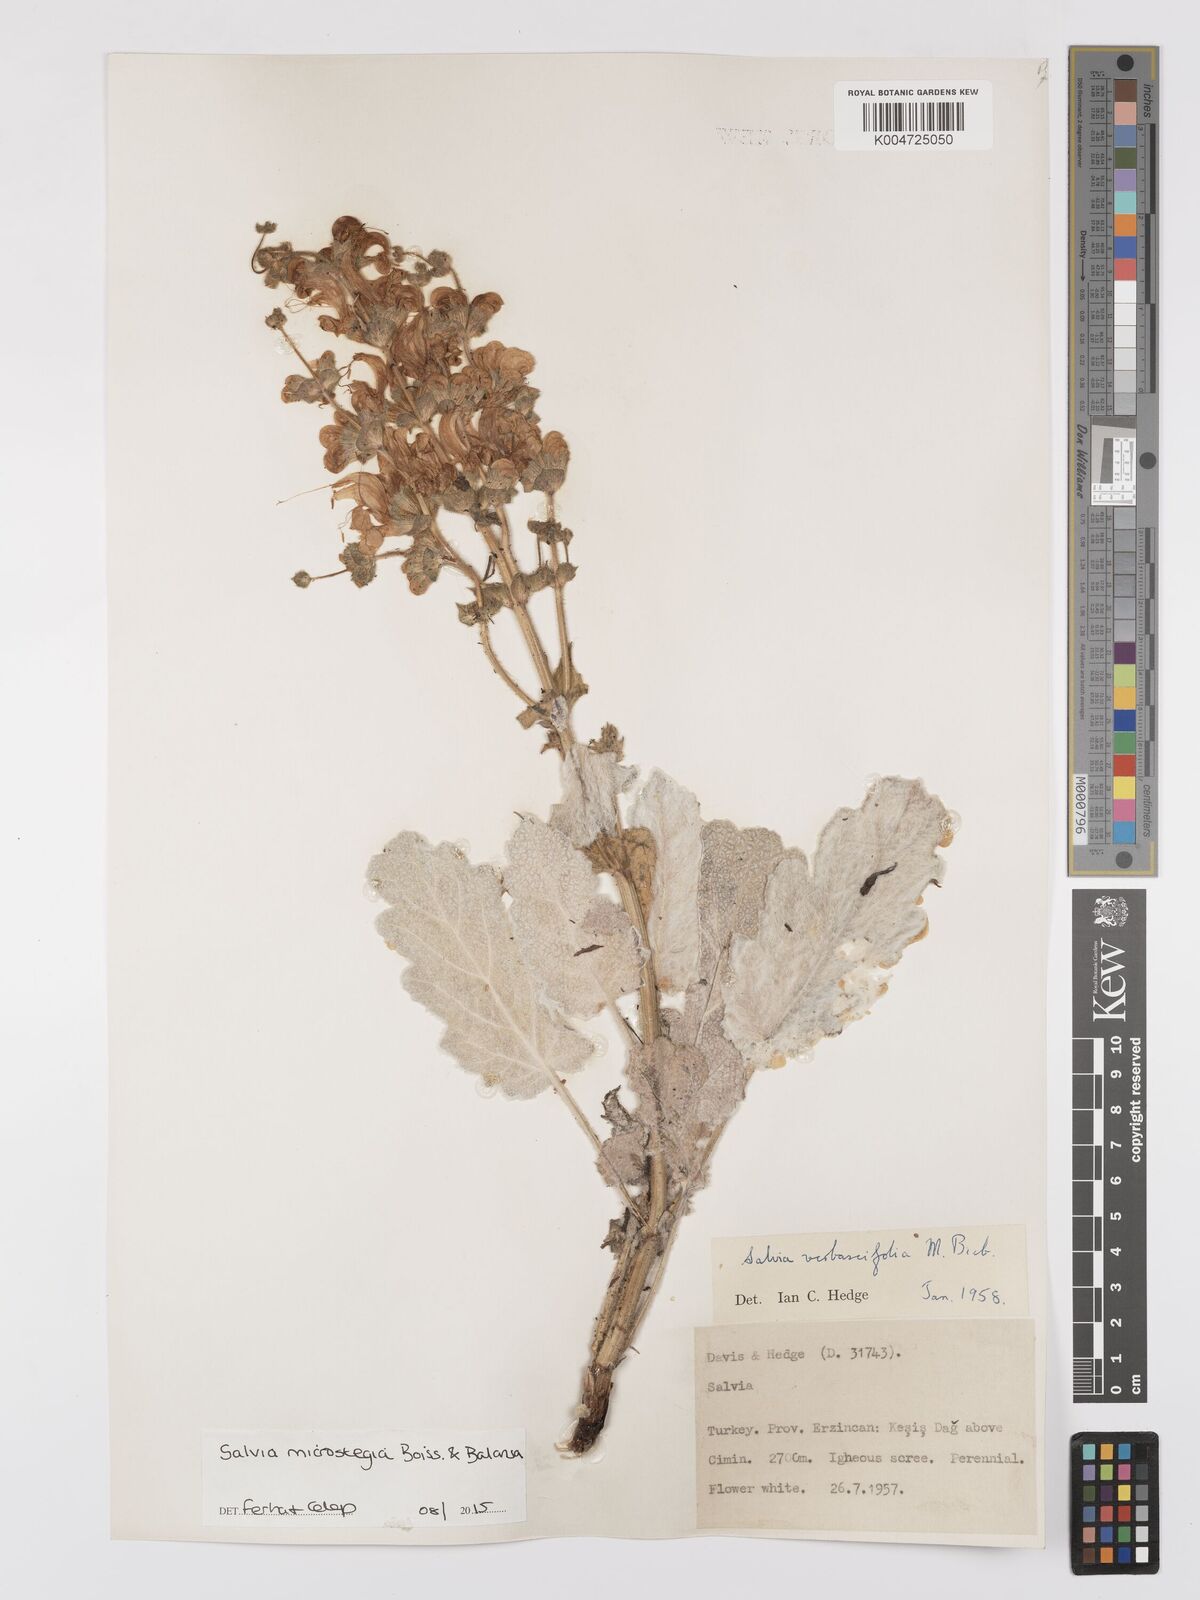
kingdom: Plantae
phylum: Tracheophyta
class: Magnoliopsida
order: Lamiales
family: Lamiaceae
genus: Salvia
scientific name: Salvia microstegia
